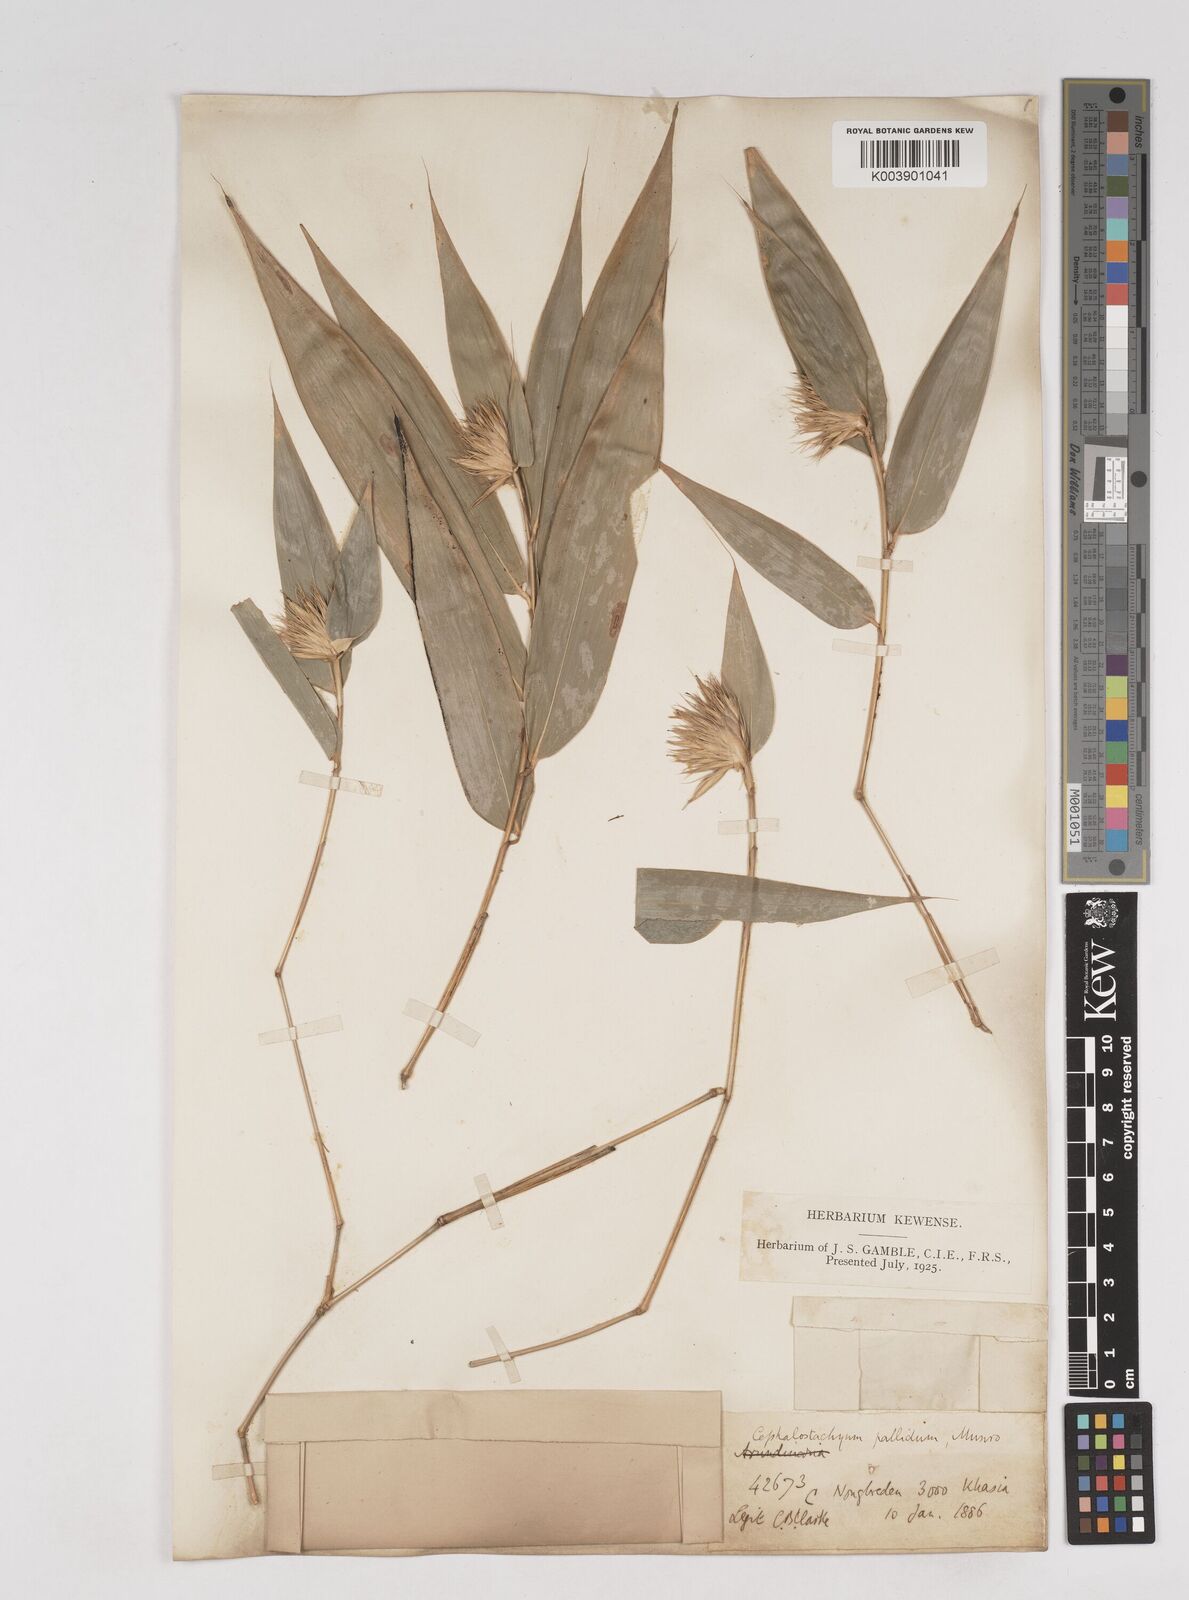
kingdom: Plantae
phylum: Tracheophyta
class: Liliopsida
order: Poales
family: Poaceae
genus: Cephalostachyum
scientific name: Cephalostachyum pallidum
